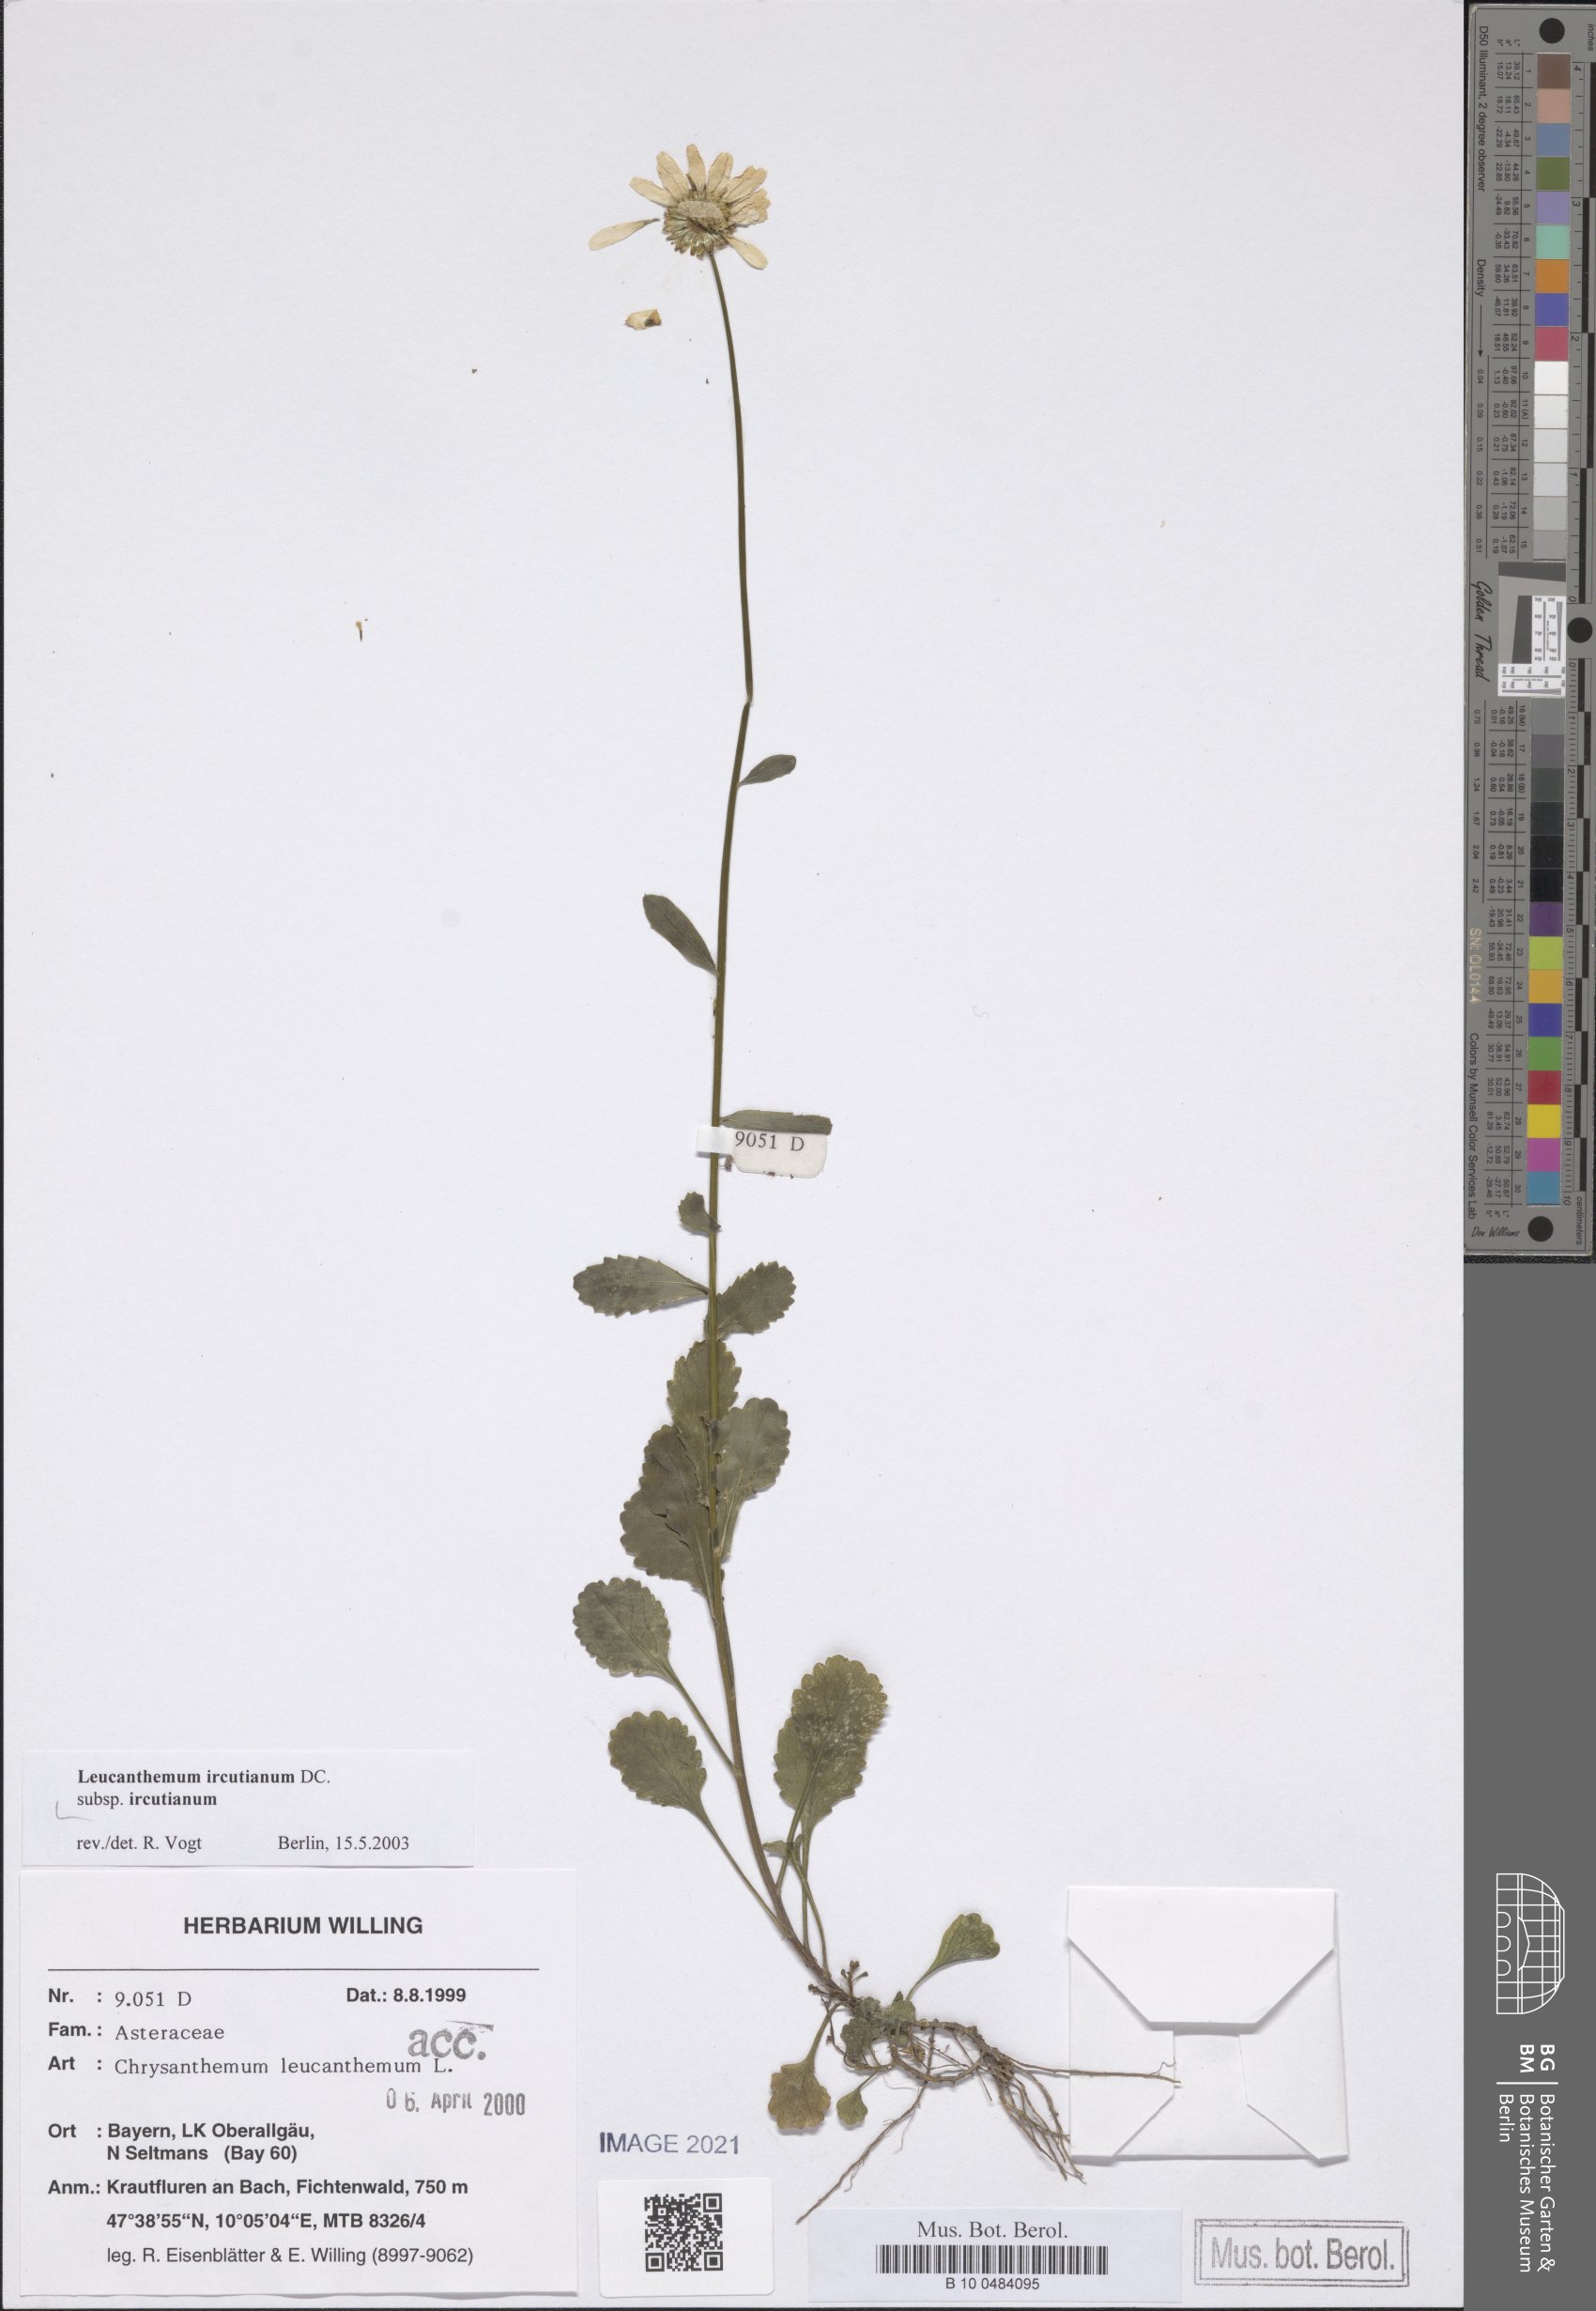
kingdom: Plantae
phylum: Tracheophyta
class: Magnoliopsida
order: Asterales
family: Asteraceae
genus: Leucanthemum
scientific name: Leucanthemum ircutianum
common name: Daisy
